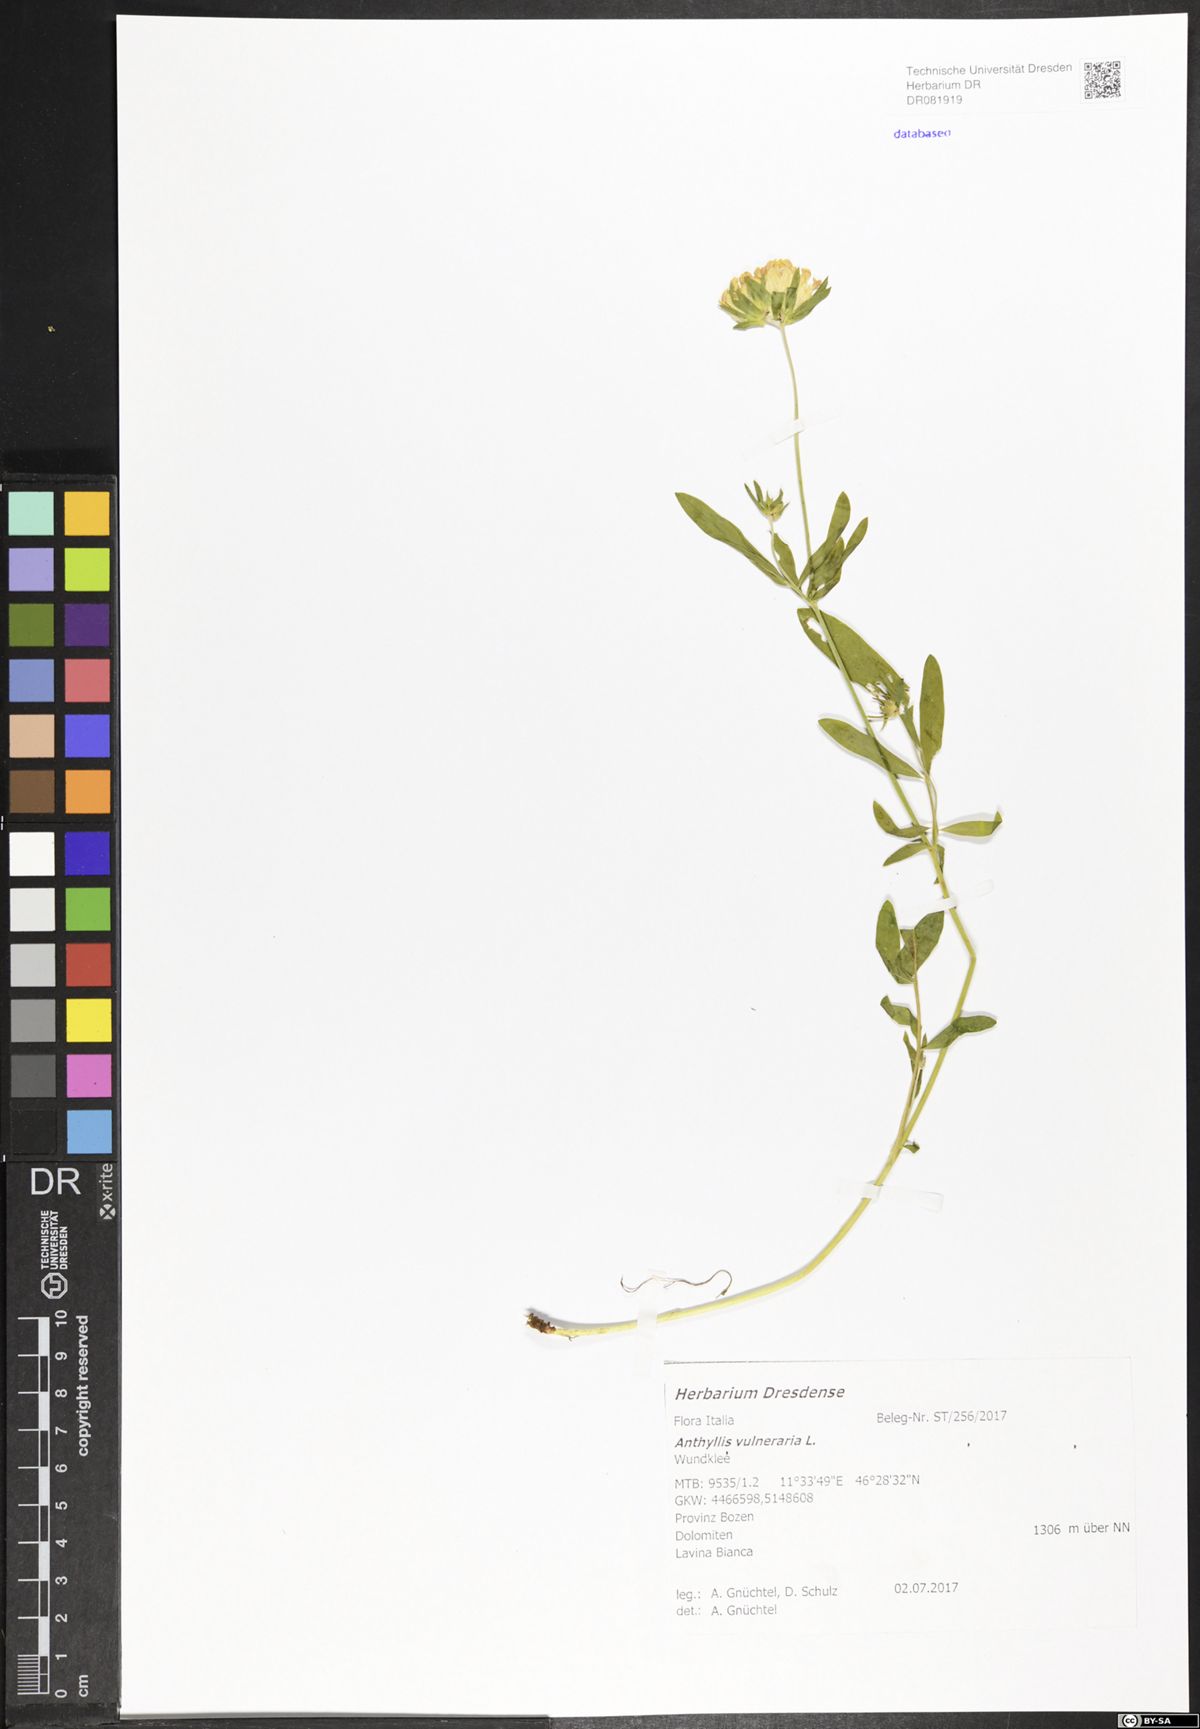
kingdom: Plantae
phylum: Tracheophyta
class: Magnoliopsida
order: Fabales
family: Fabaceae
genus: Anthyllis
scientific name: Anthyllis vulneraria
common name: Kidney vetch
